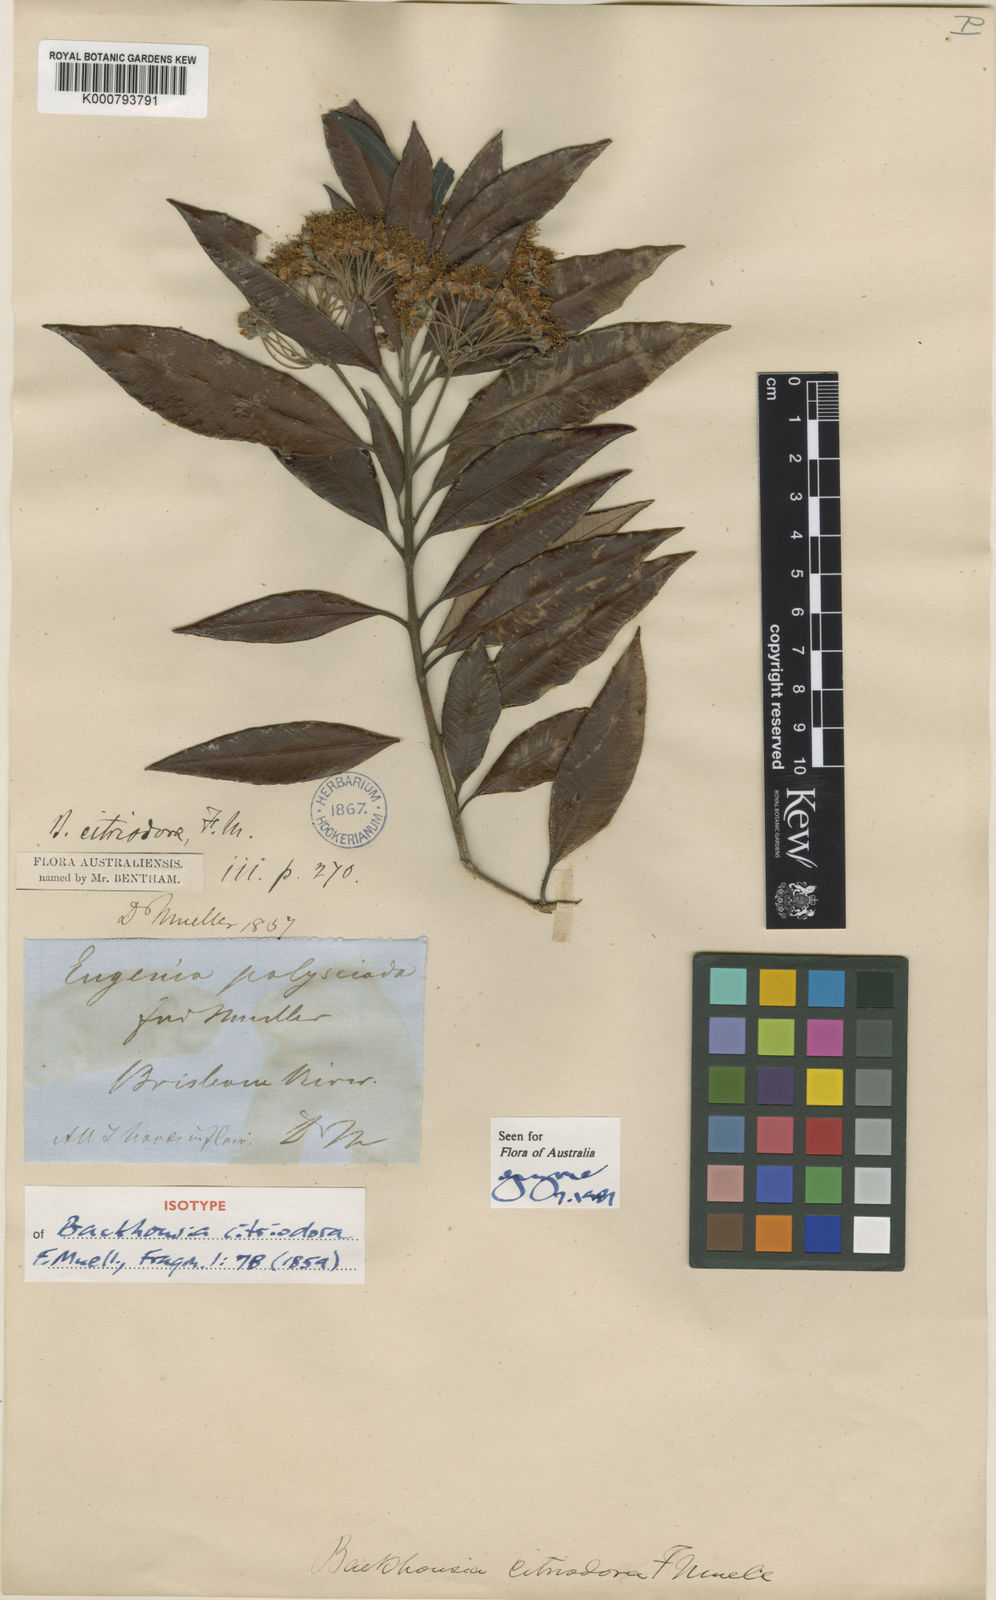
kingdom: Plantae
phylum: Tracheophyta
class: Magnoliopsida
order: Myrtales
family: Myrtaceae
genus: Backhousia
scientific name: Backhousia citriodora
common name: Australian lemon myrtle
